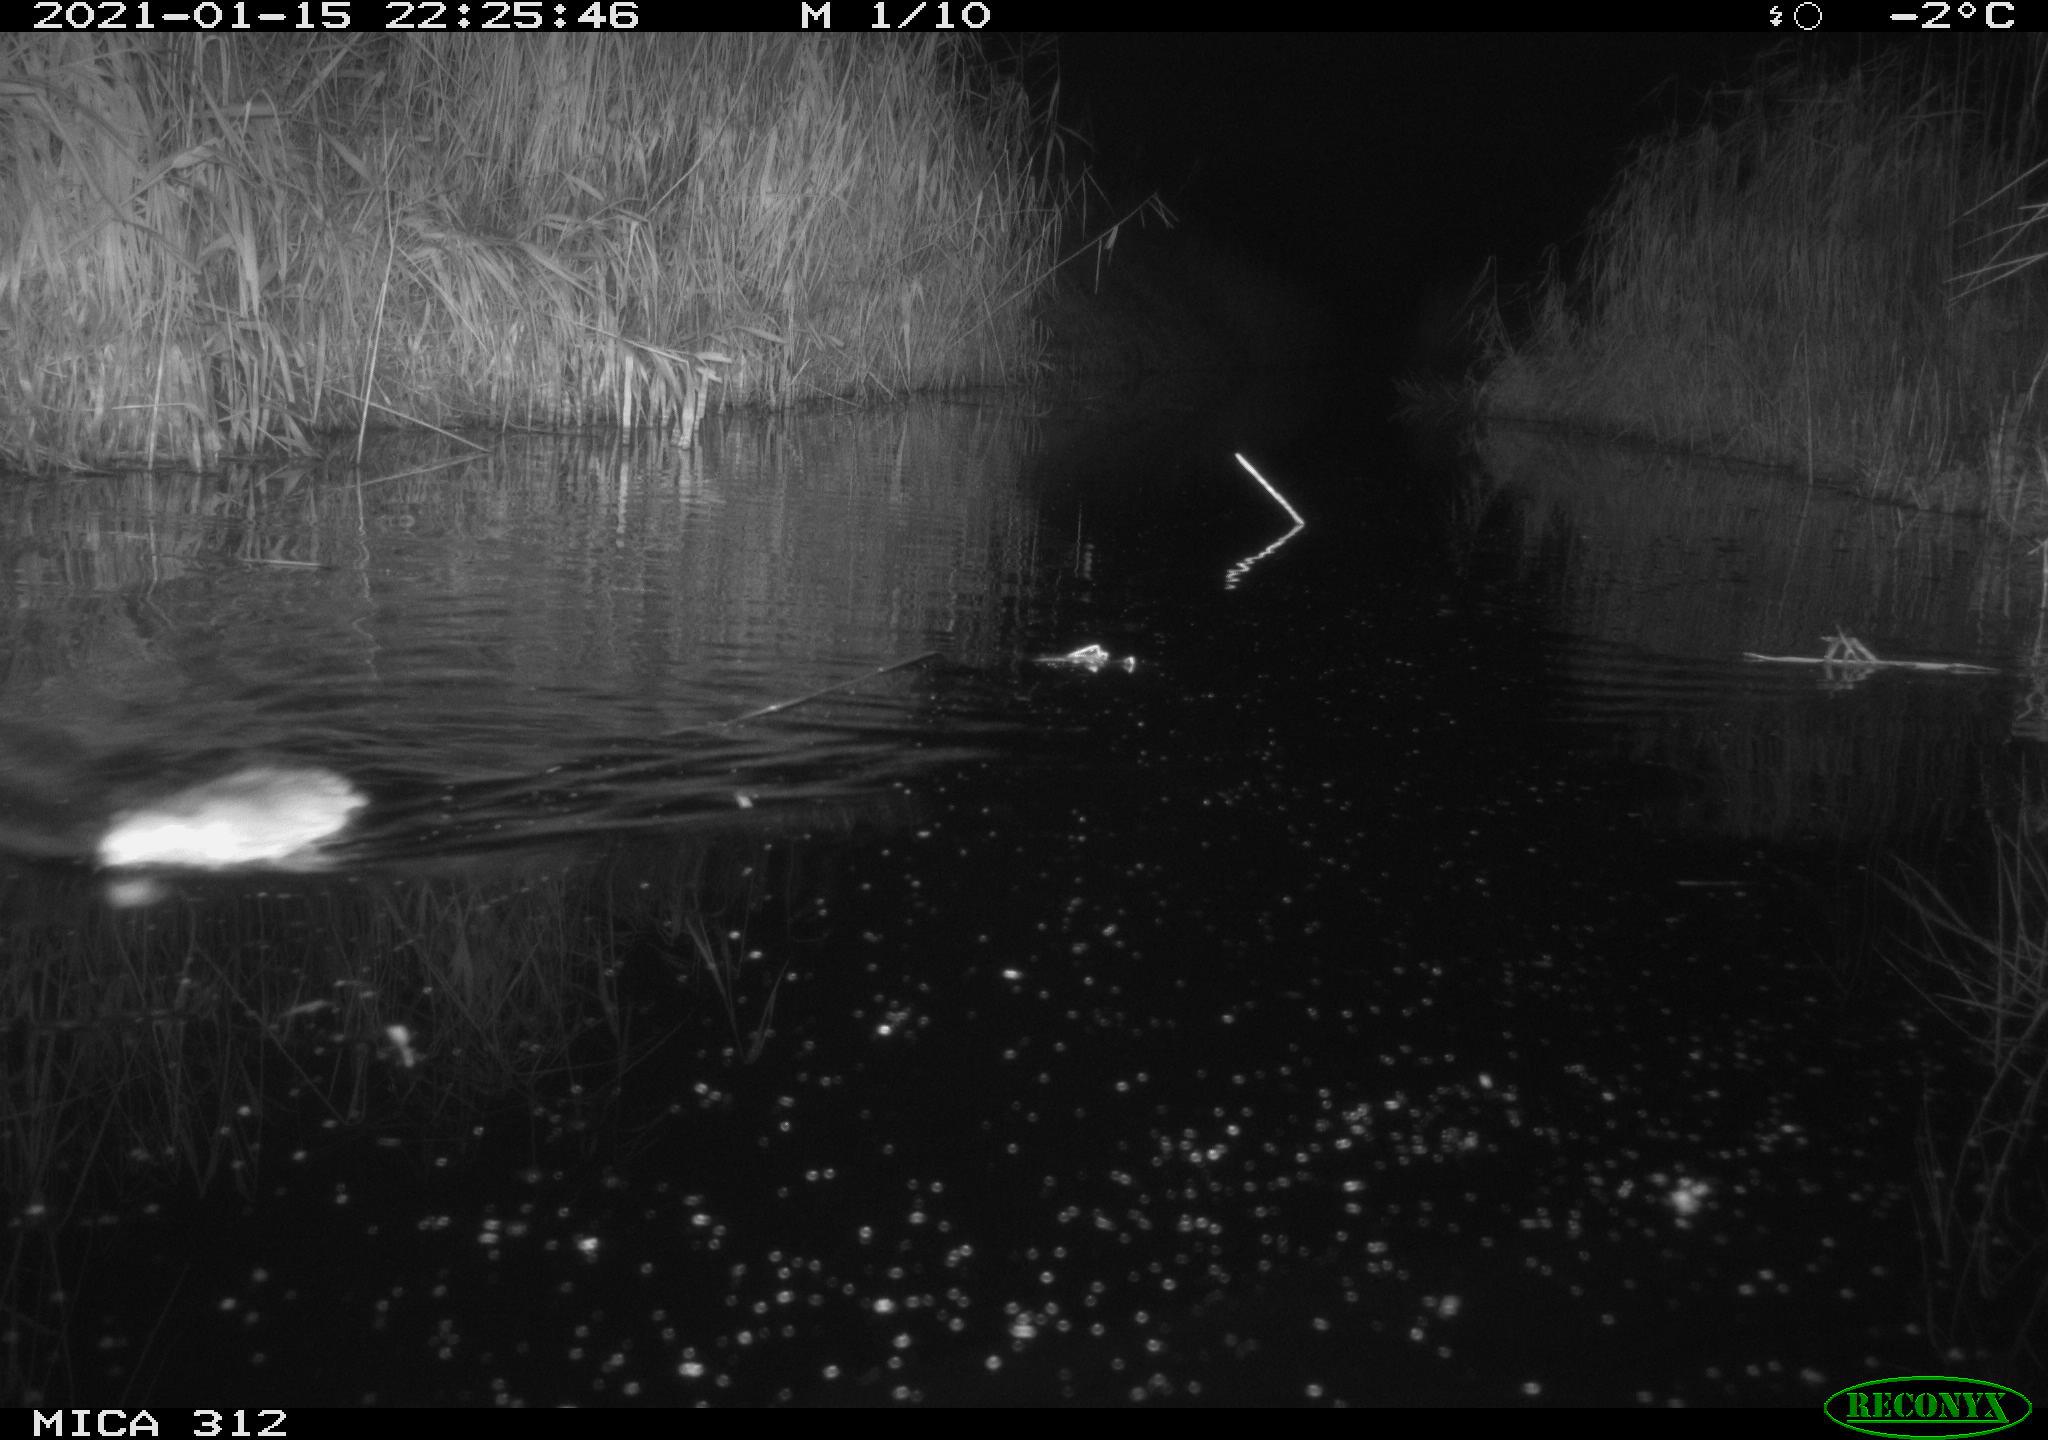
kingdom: Animalia
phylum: Chordata
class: Mammalia
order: Rodentia
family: Muridae
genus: Rattus
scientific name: Rattus norvegicus
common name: Brown rat
